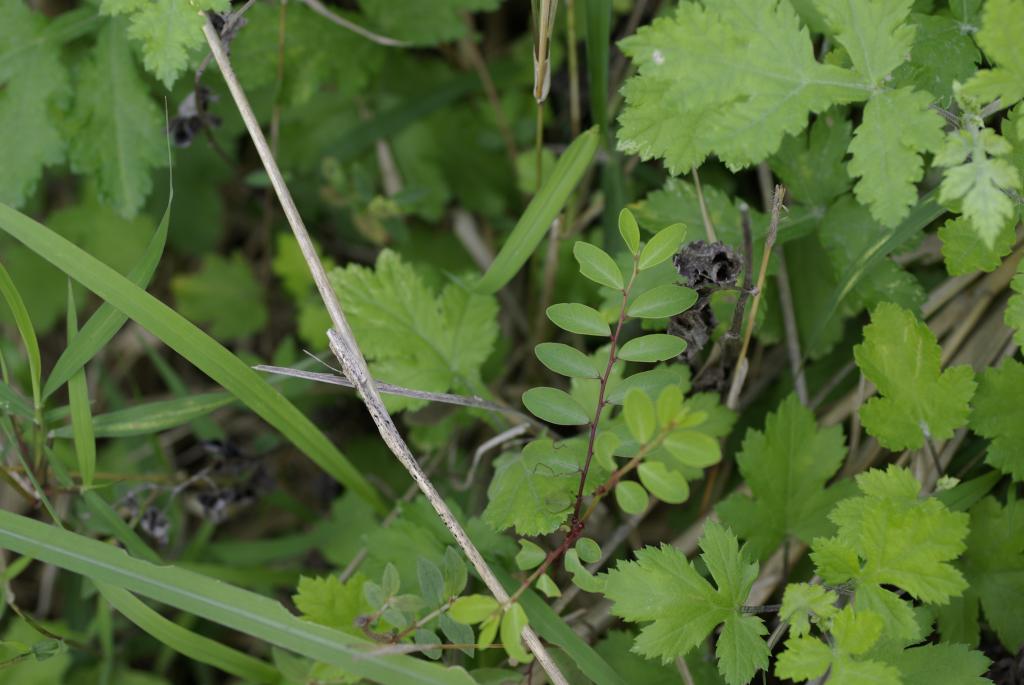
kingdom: Plantae
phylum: Tracheophyta
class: Magnoliopsida
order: Malpighiales
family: Phyllanthaceae
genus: Breynia
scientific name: Breynia officinalis
